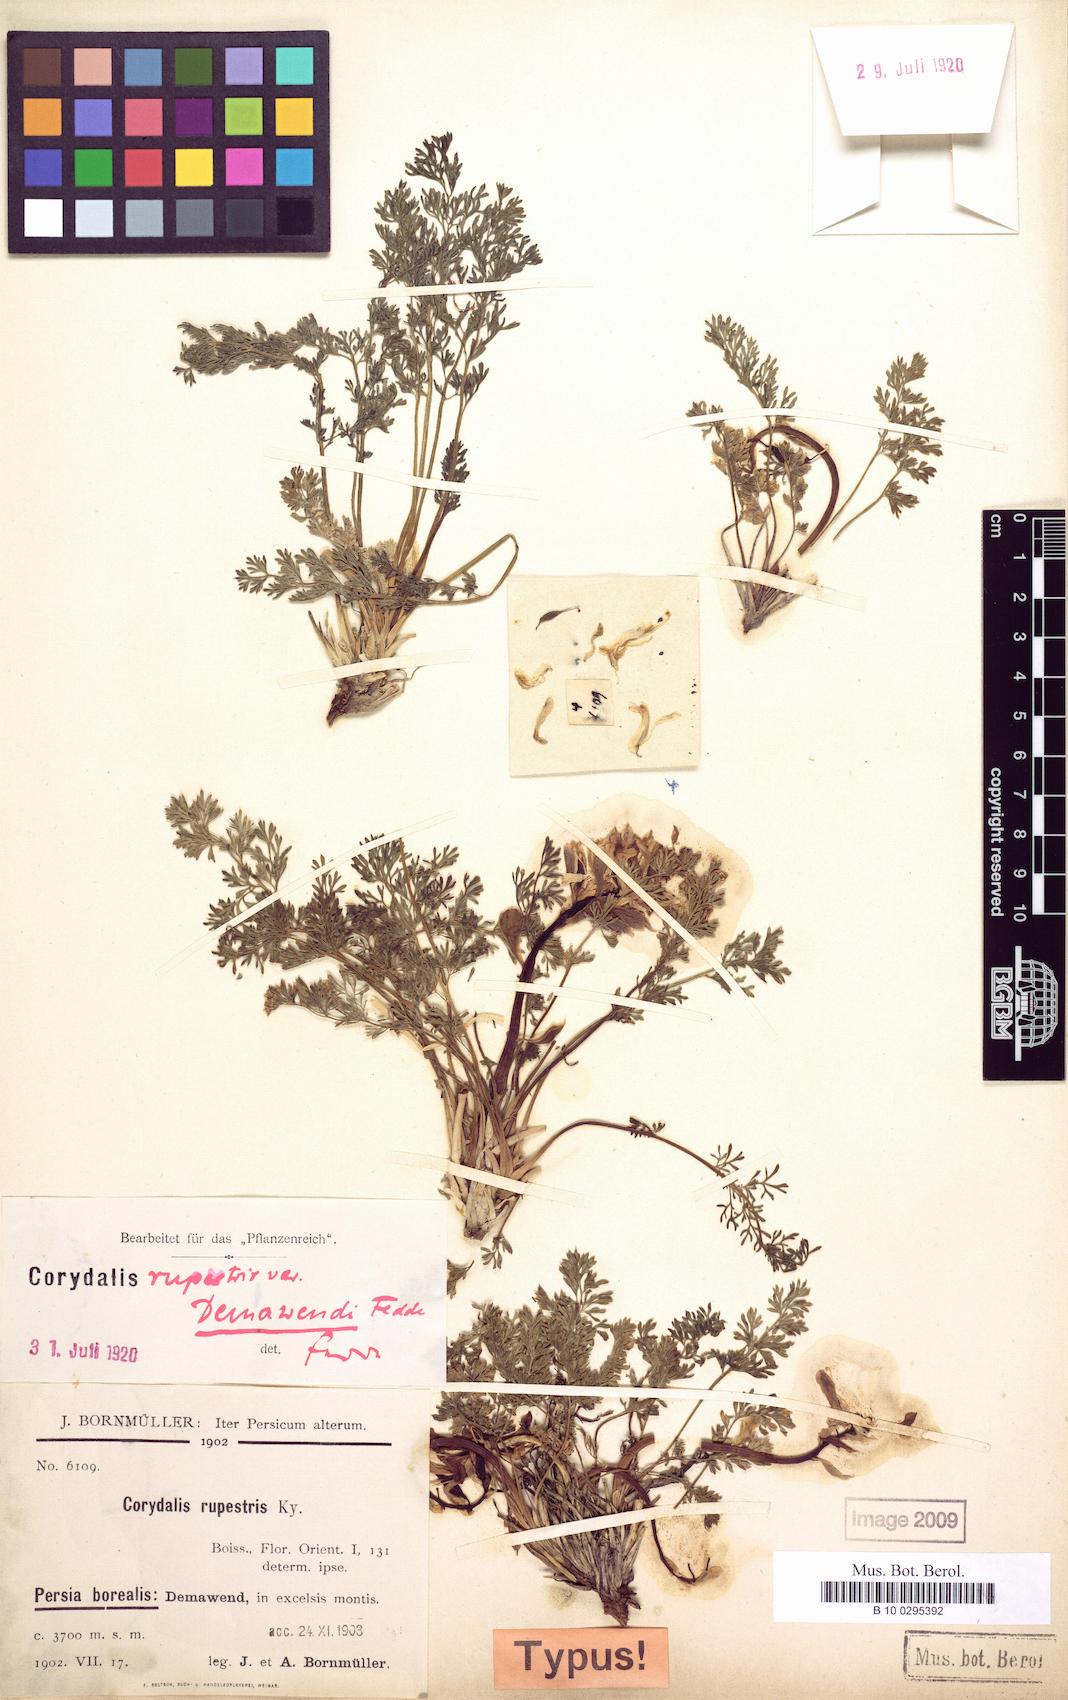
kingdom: Plantae
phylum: Tracheophyta
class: Magnoliopsida
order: Ranunculales
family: Papaveraceae
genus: Corydalis
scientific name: Corydalis rupestris
